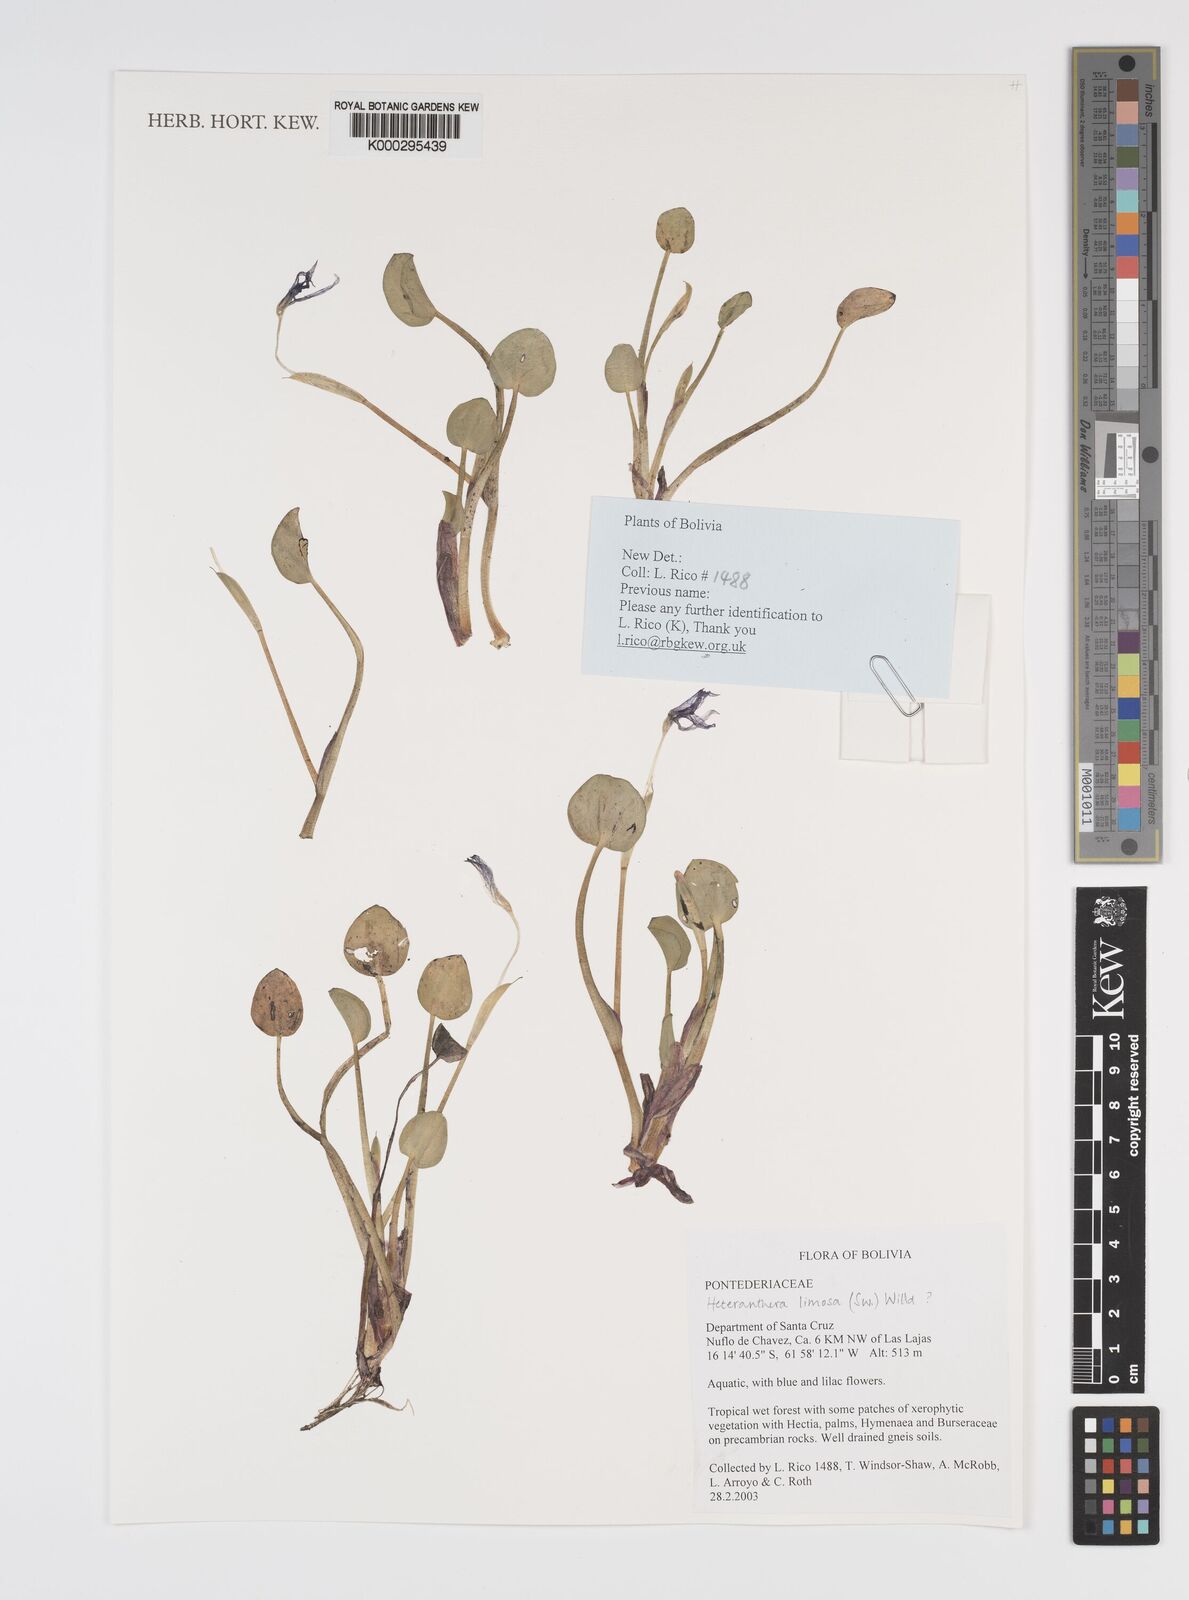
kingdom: Plantae
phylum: Tracheophyta
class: Liliopsida
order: Commelinales
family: Pontederiaceae
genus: Heteranthera
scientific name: Heteranthera limosa
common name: Blue mud-plantain
